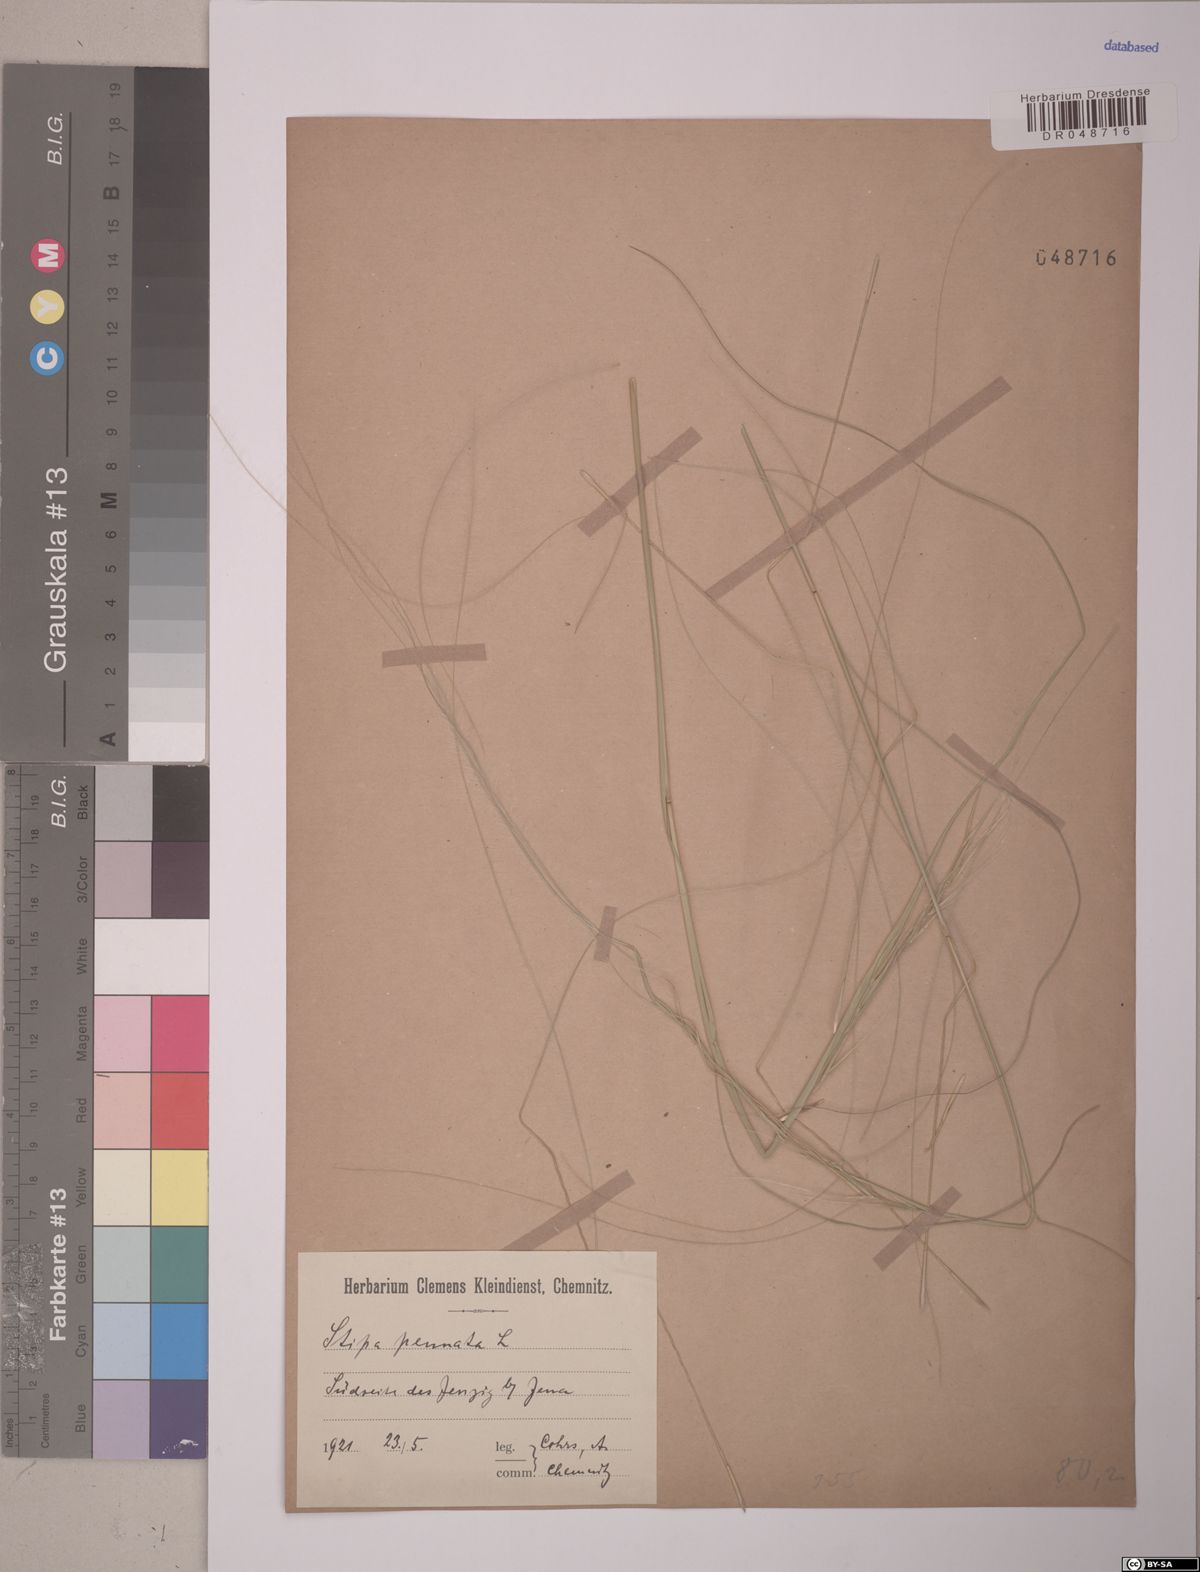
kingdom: Plantae
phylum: Tracheophyta
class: Liliopsida
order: Poales
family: Poaceae
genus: Stipa
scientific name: Stipa pennata
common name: European feather grass
